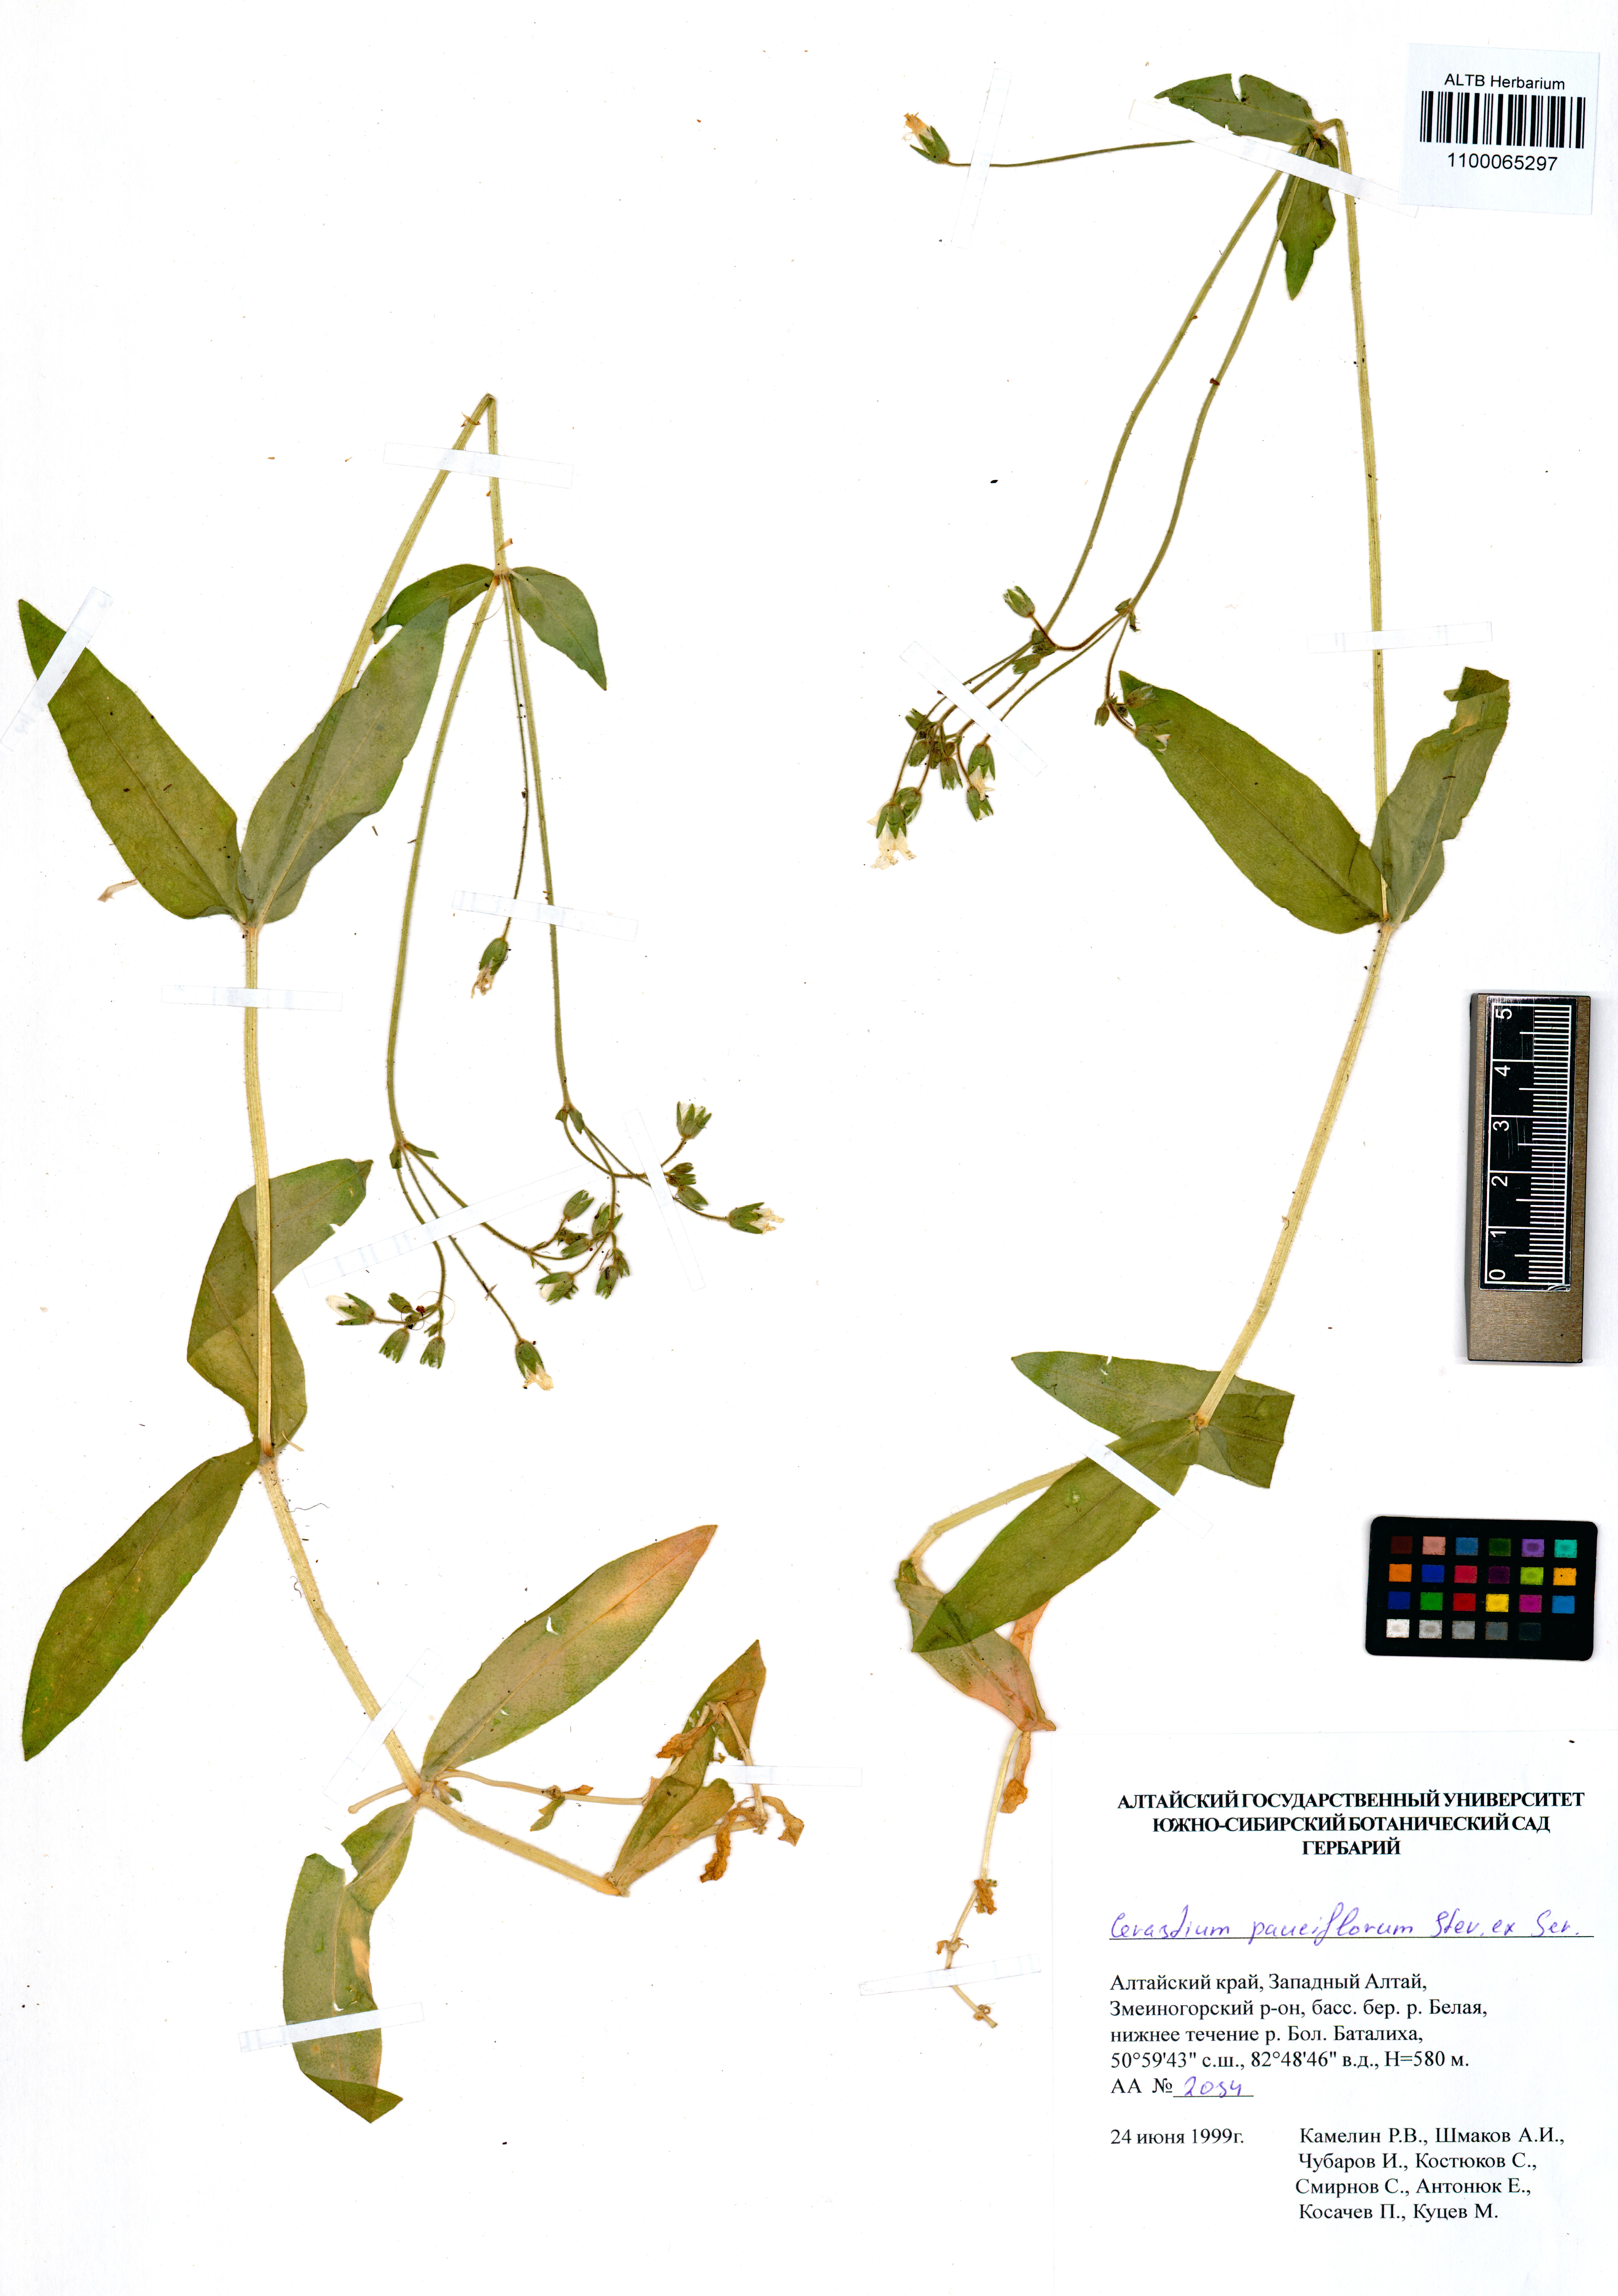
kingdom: Plantae
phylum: Tracheophyta
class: Magnoliopsida
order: Caryophyllales
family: Caryophyllaceae
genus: Cerastium
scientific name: Cerastium pauciflorum
